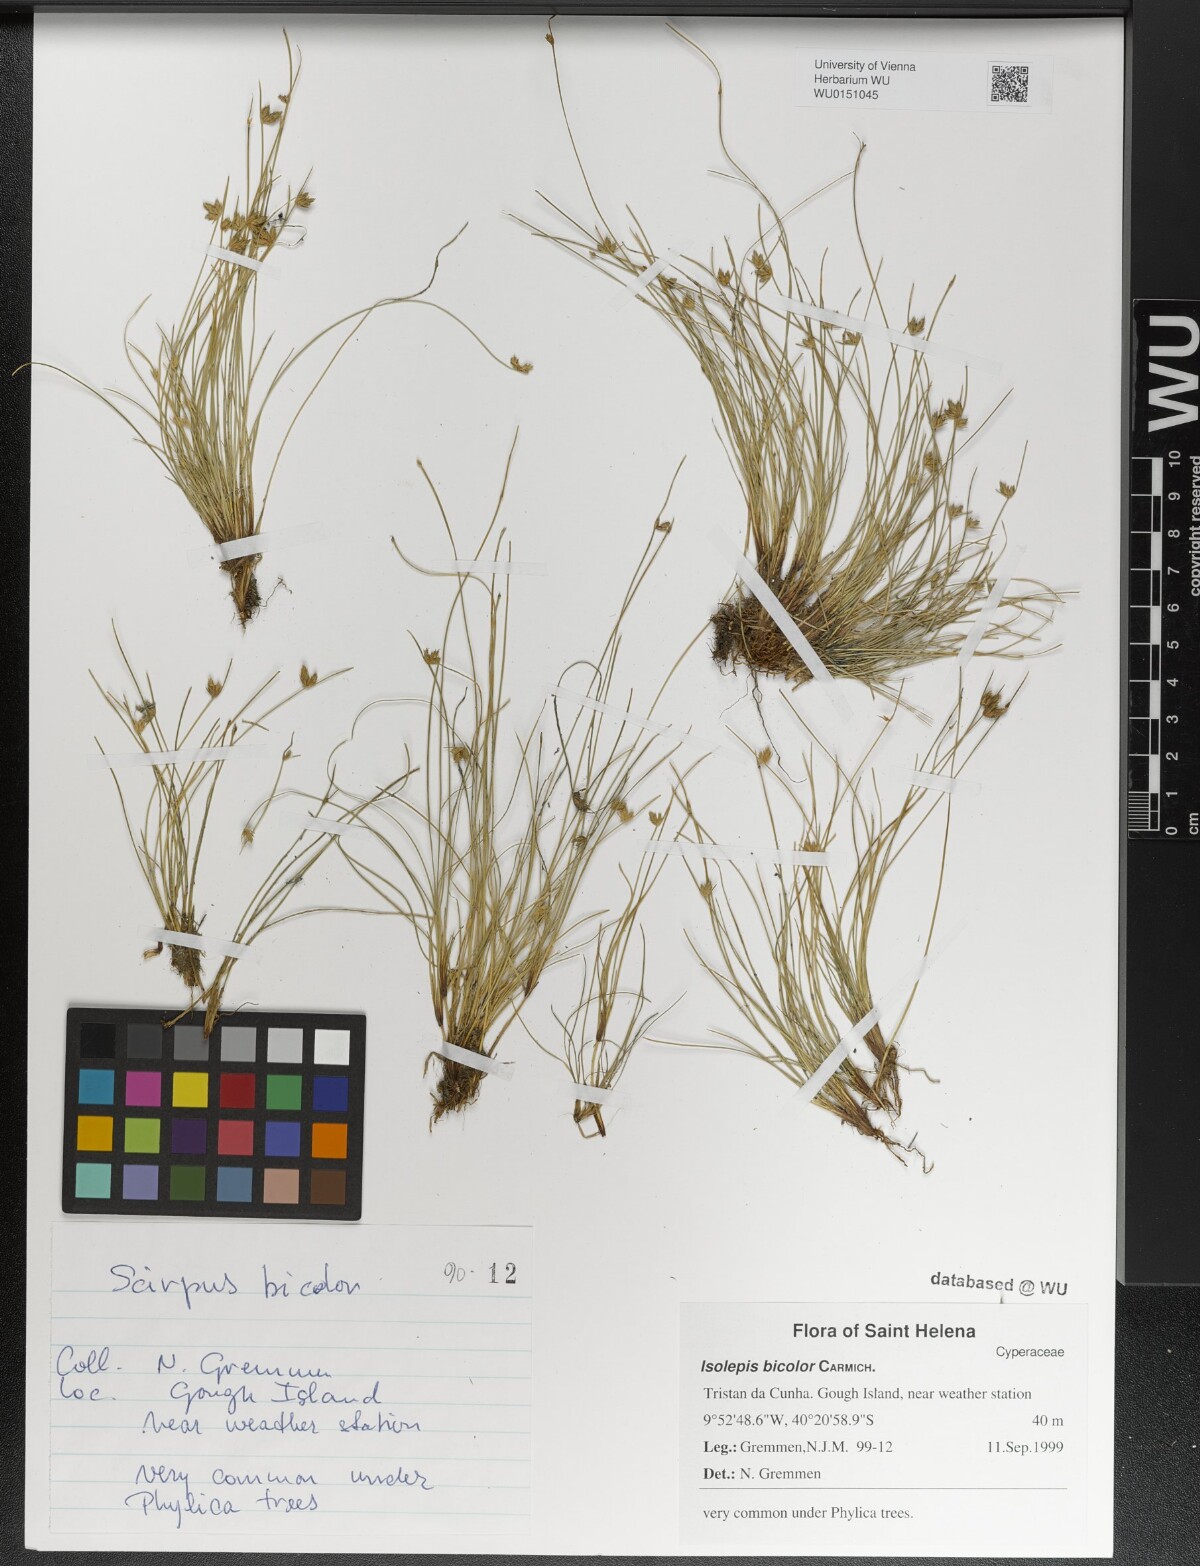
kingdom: Plantae
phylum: Tracheophyta
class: Liliopsida
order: Poales
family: Cyperaceae
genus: Isolepis
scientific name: Isolepis bicolor
